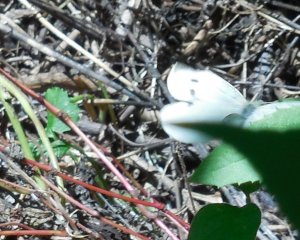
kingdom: Animalia
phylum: Arthropoda
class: Insecta
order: Lepidoptera
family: Pieridae
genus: Pieris
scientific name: Pieris rapae
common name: Cabbage White
